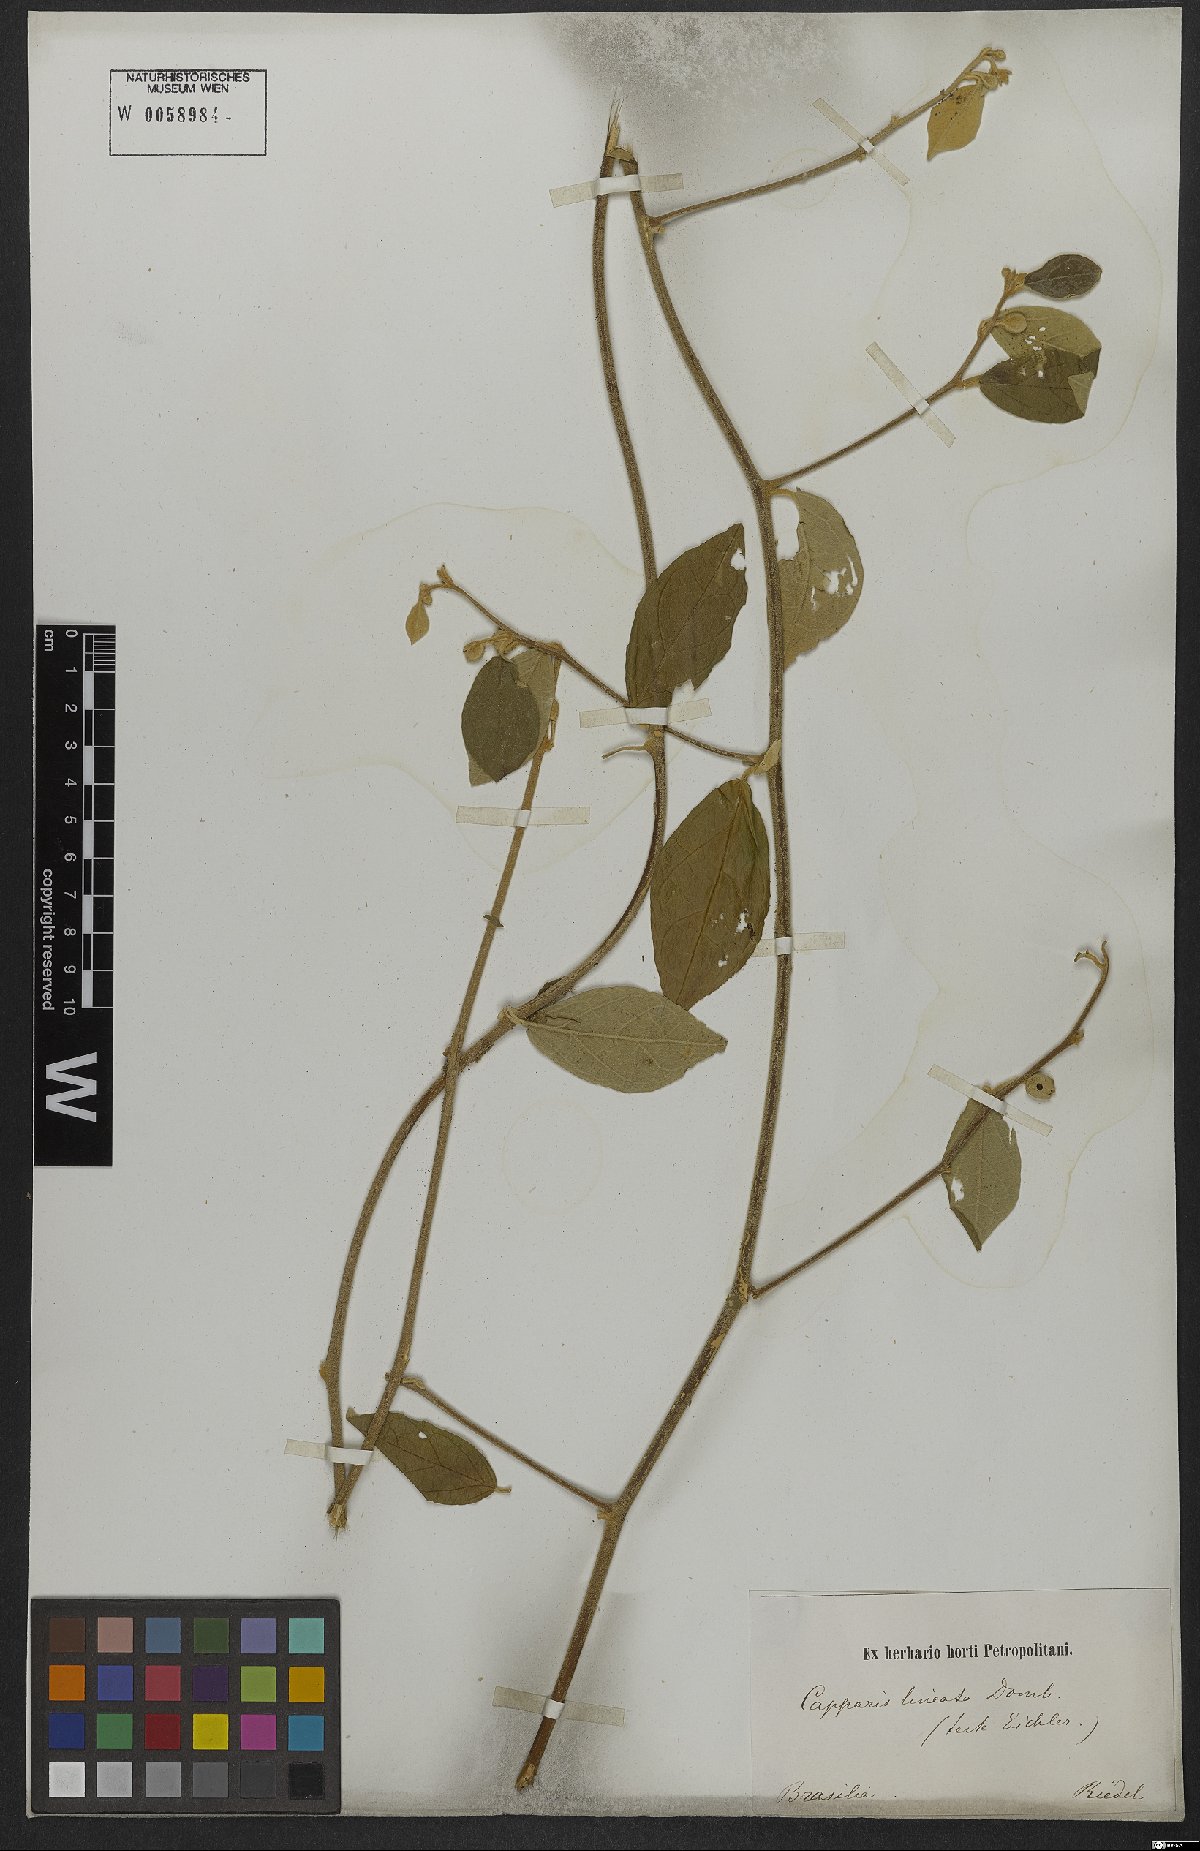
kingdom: Plantae
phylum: Tracheophyta
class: Magnoliopsida
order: Brassicales
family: Capparaceae
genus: Mesocapparis
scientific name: Mesocapparis lineata
